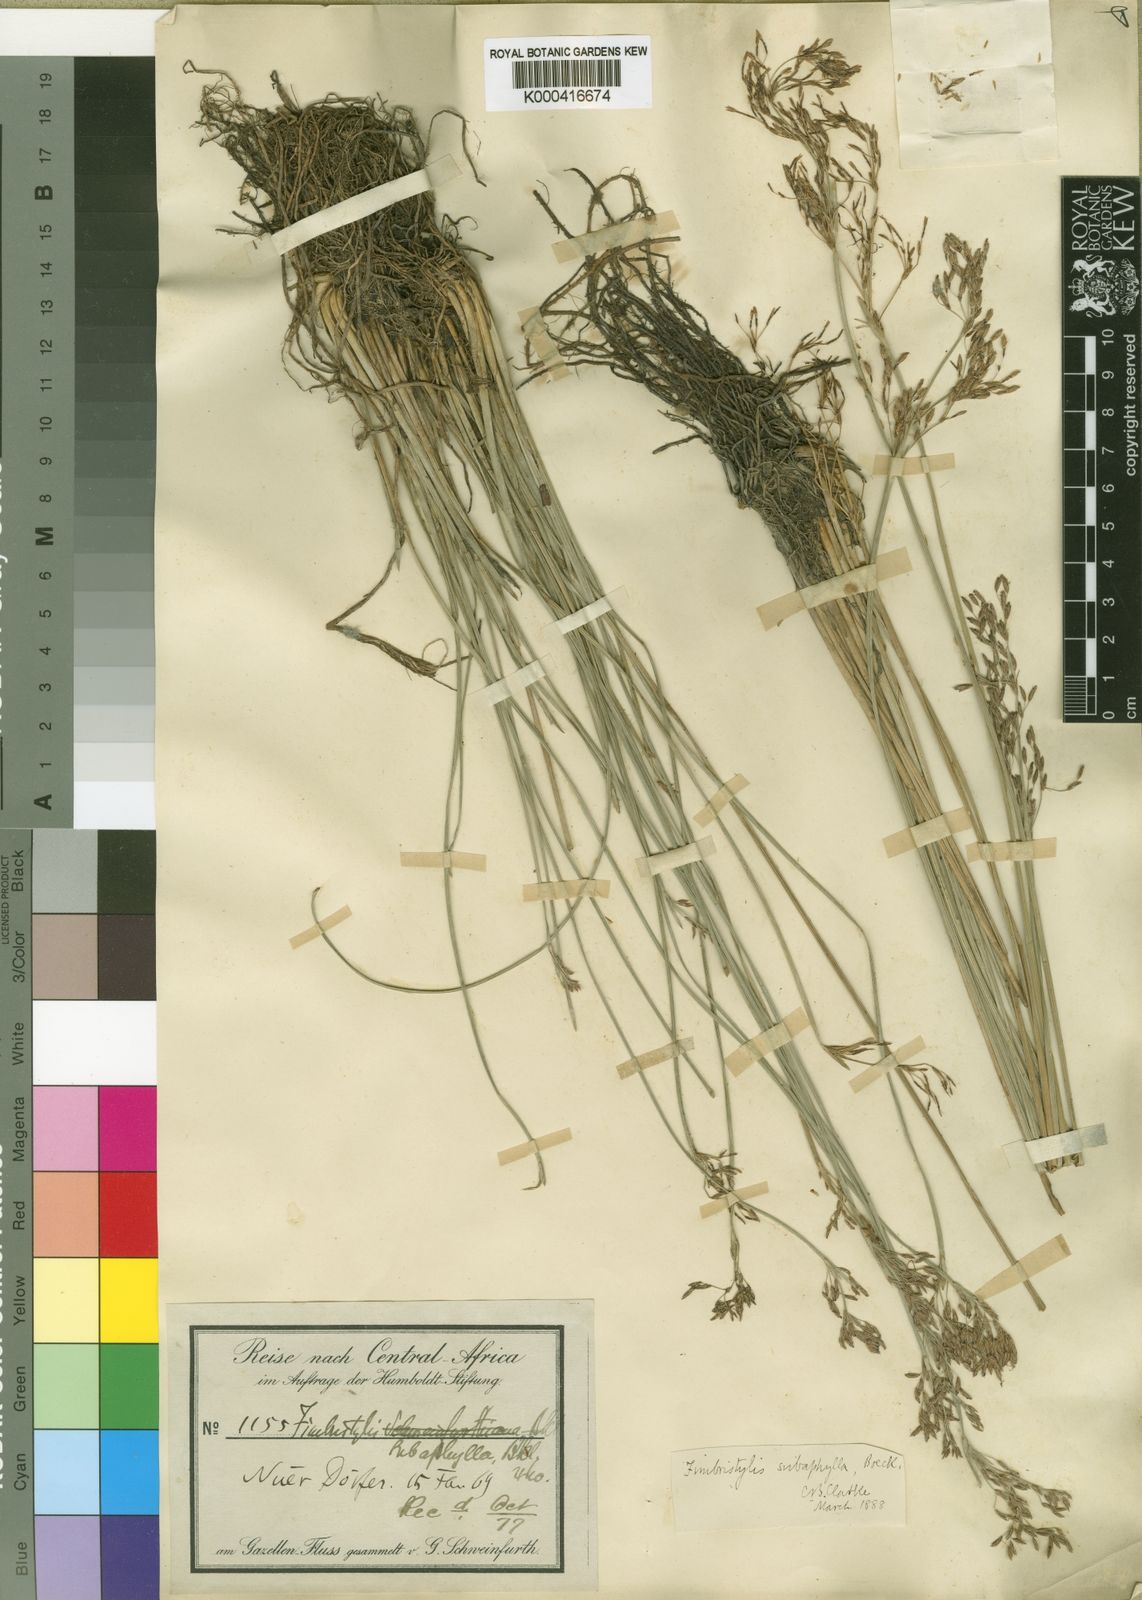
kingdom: Plantae
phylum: Tracheophyta
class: Liliopsida
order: Poales
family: Cyperaceae
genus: Fimbristylis
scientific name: Fimbristylis subaphylla
